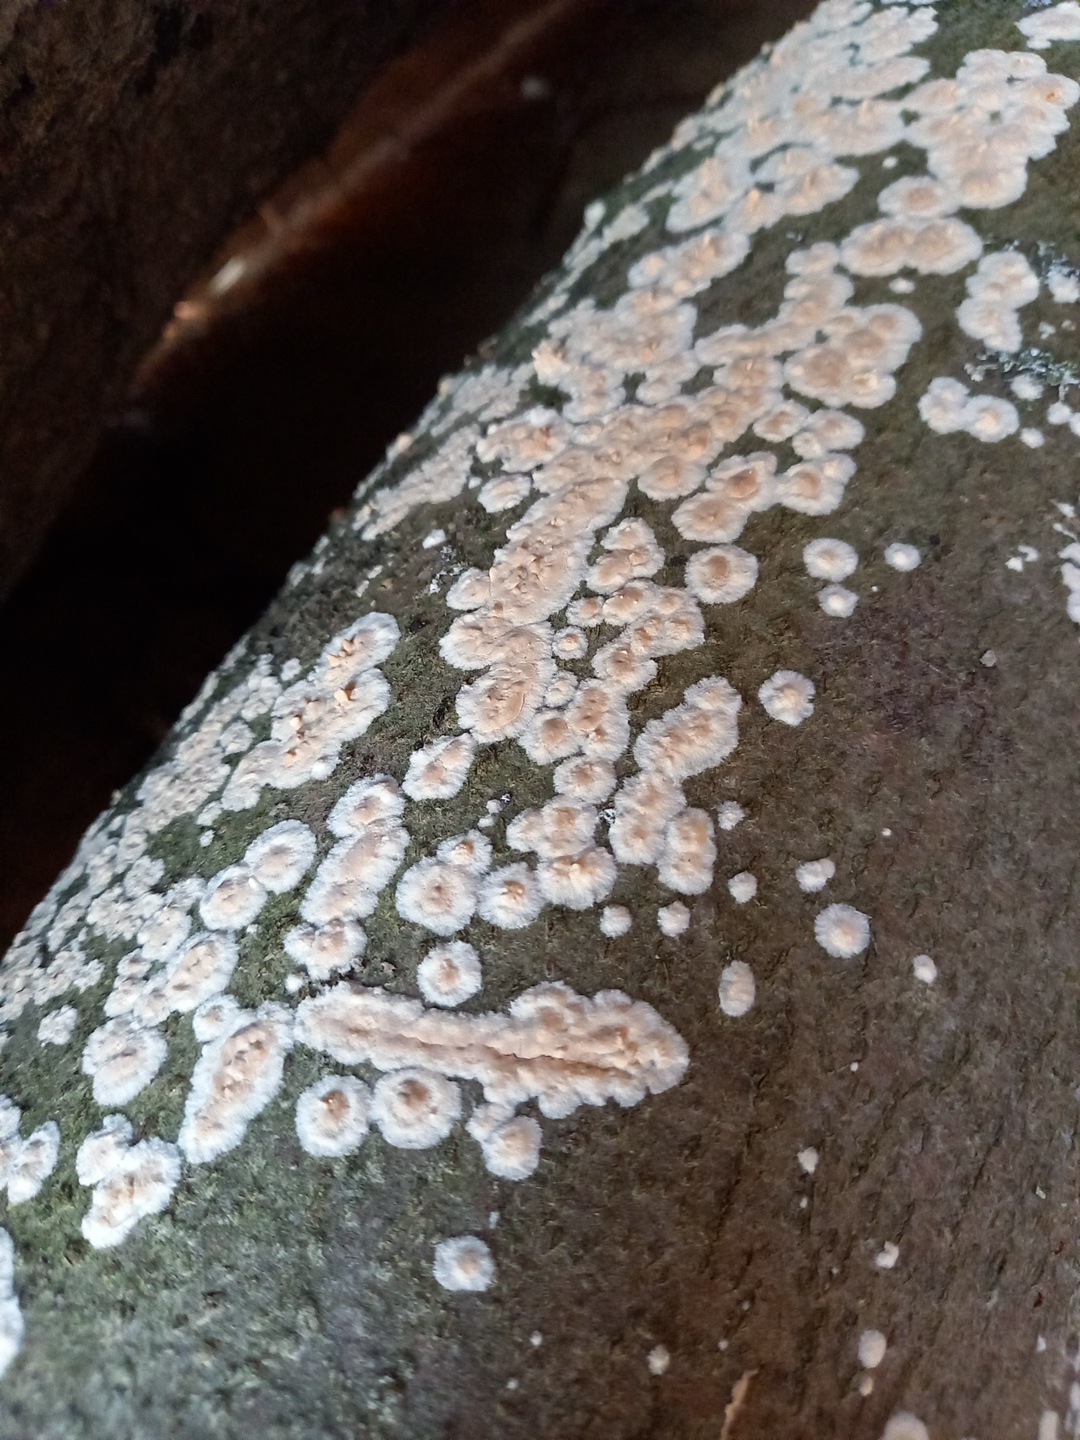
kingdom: Fungi
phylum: Basidiomycota
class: Agaricomycetes
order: Agaricales
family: Physalacriaceae
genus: Cylindrobasidium
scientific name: Cylindrobasidium evolvens
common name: sprækkehinde
